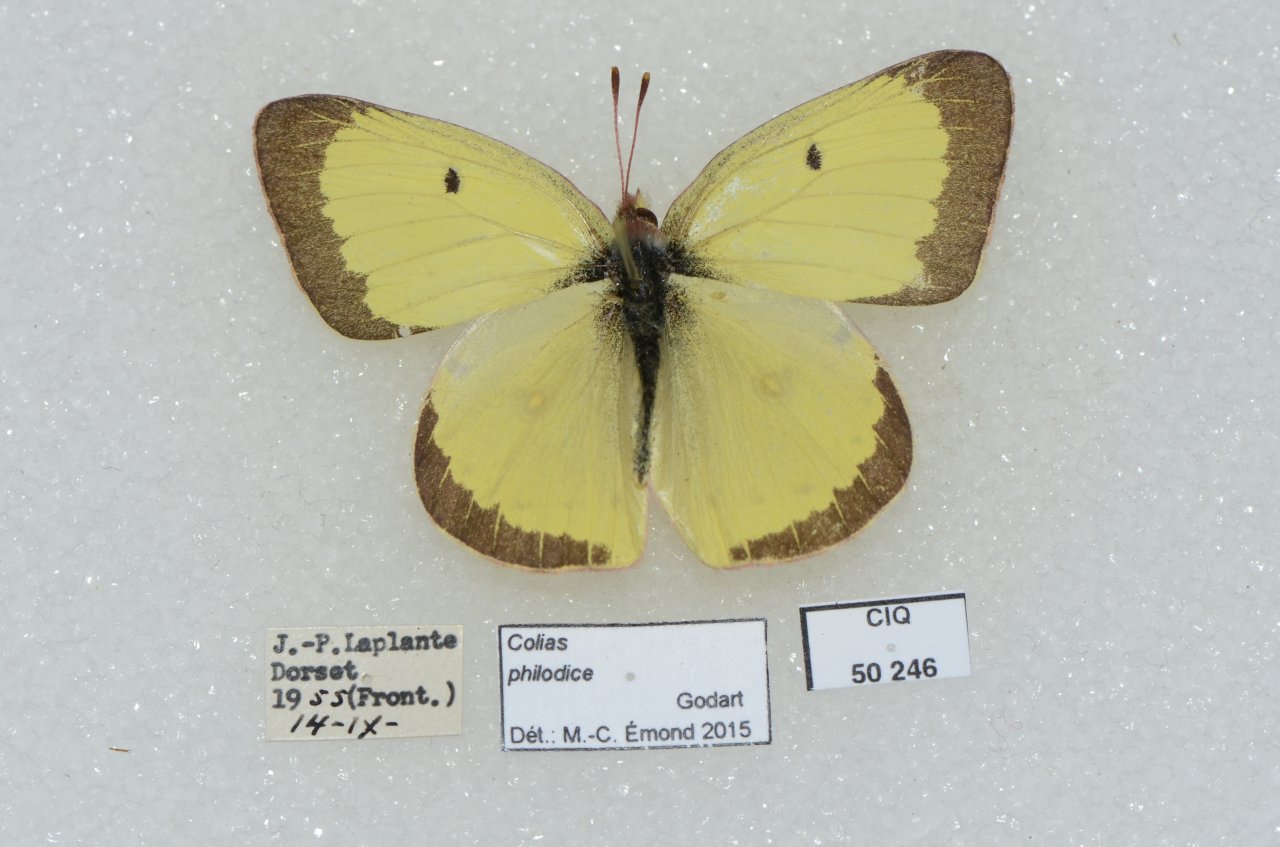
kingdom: Animalia
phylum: Arthropoda
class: Insecta
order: Lepidoptera
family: Pieridae
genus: Colias
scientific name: Colias philodice
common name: Clouded Sulphur
